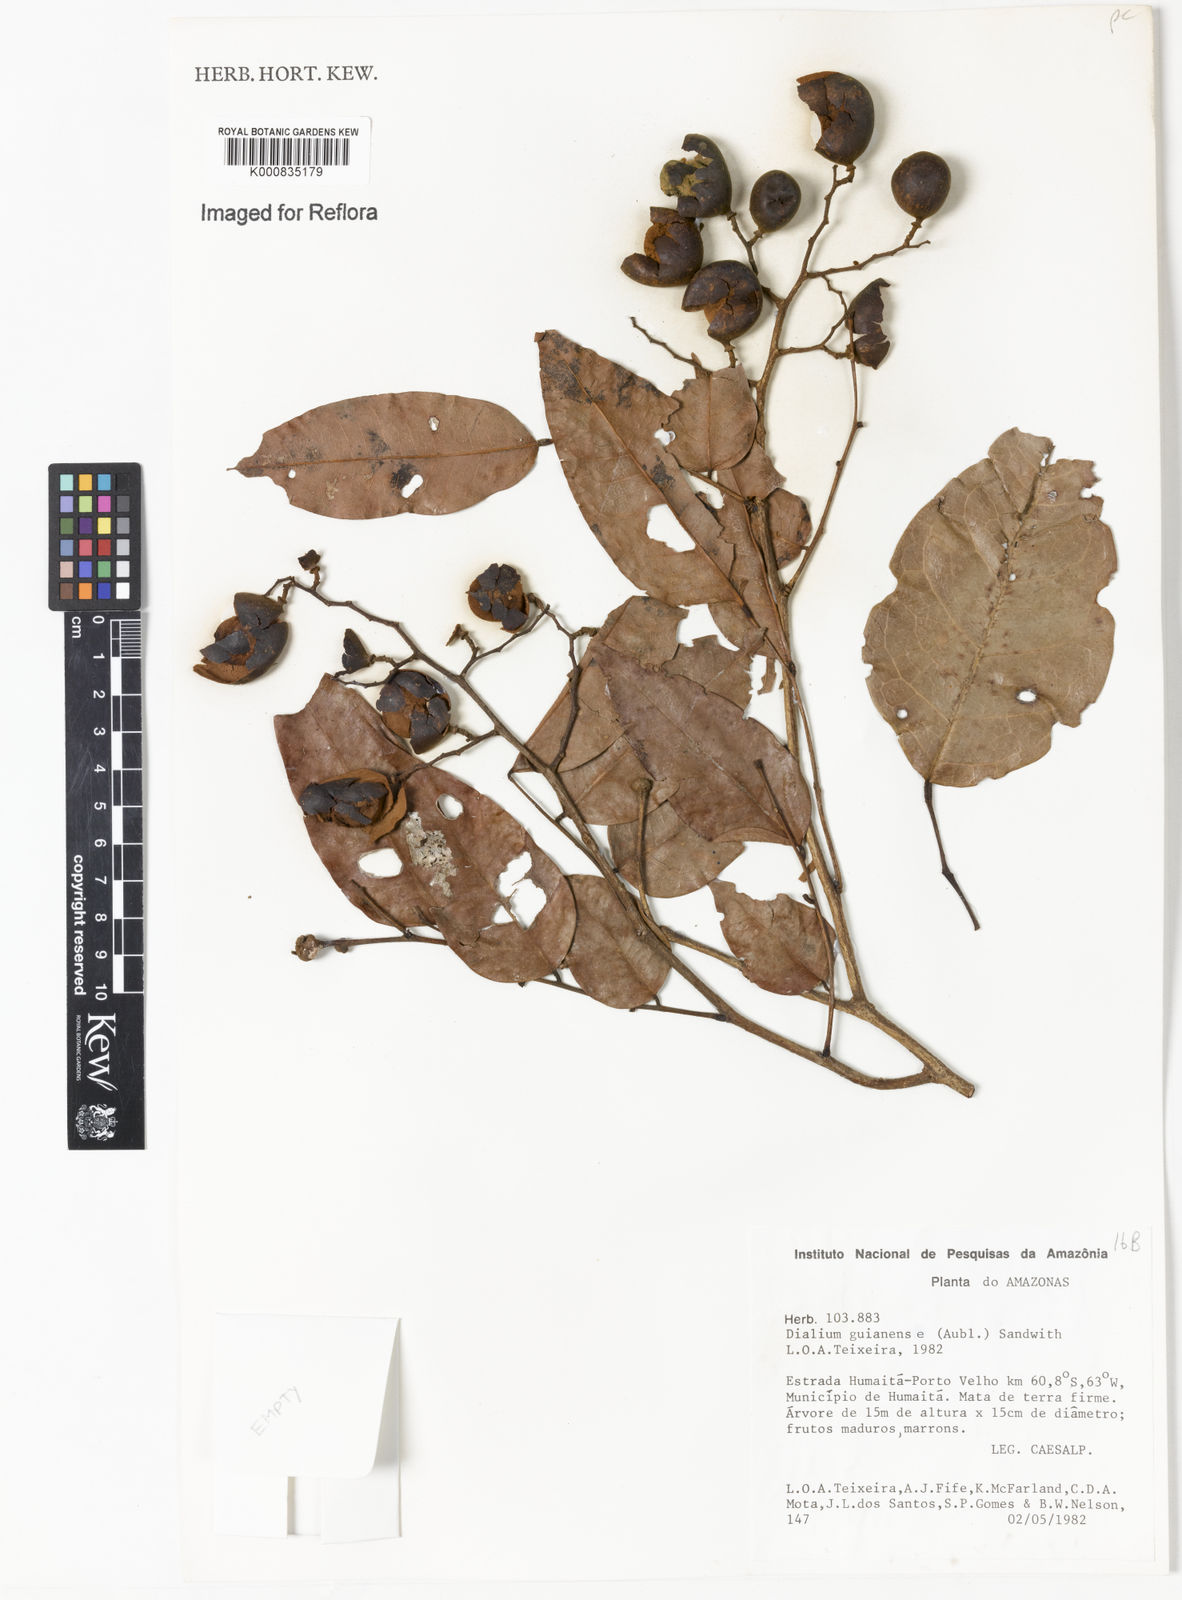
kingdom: Plantae
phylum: Tracheophyta
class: Magnoliopsida
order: Fabales
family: Fabaceae
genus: Dialium
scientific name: Dialium guianense
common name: Ironwood
